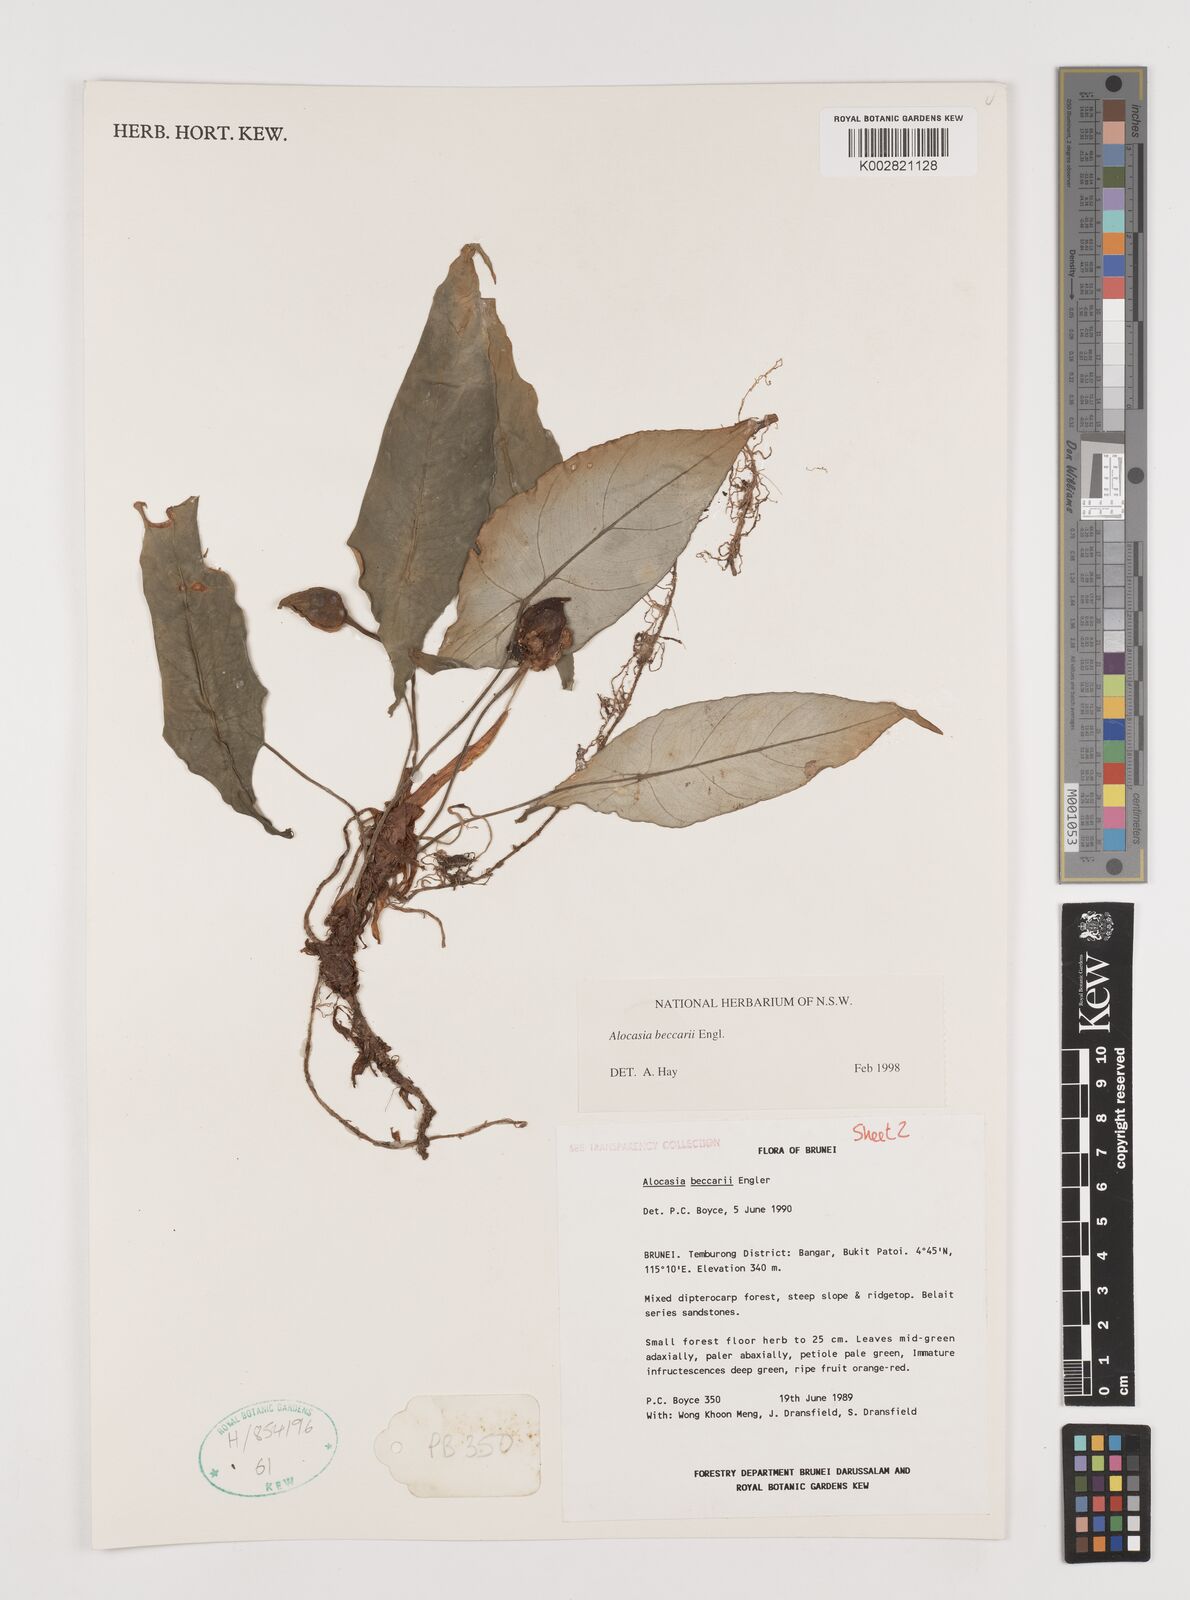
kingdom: Plantae
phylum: Tracheophyta
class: Liliopsida
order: Alismatales
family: Araceae
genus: Alocasia
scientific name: Alocasia beccarii
